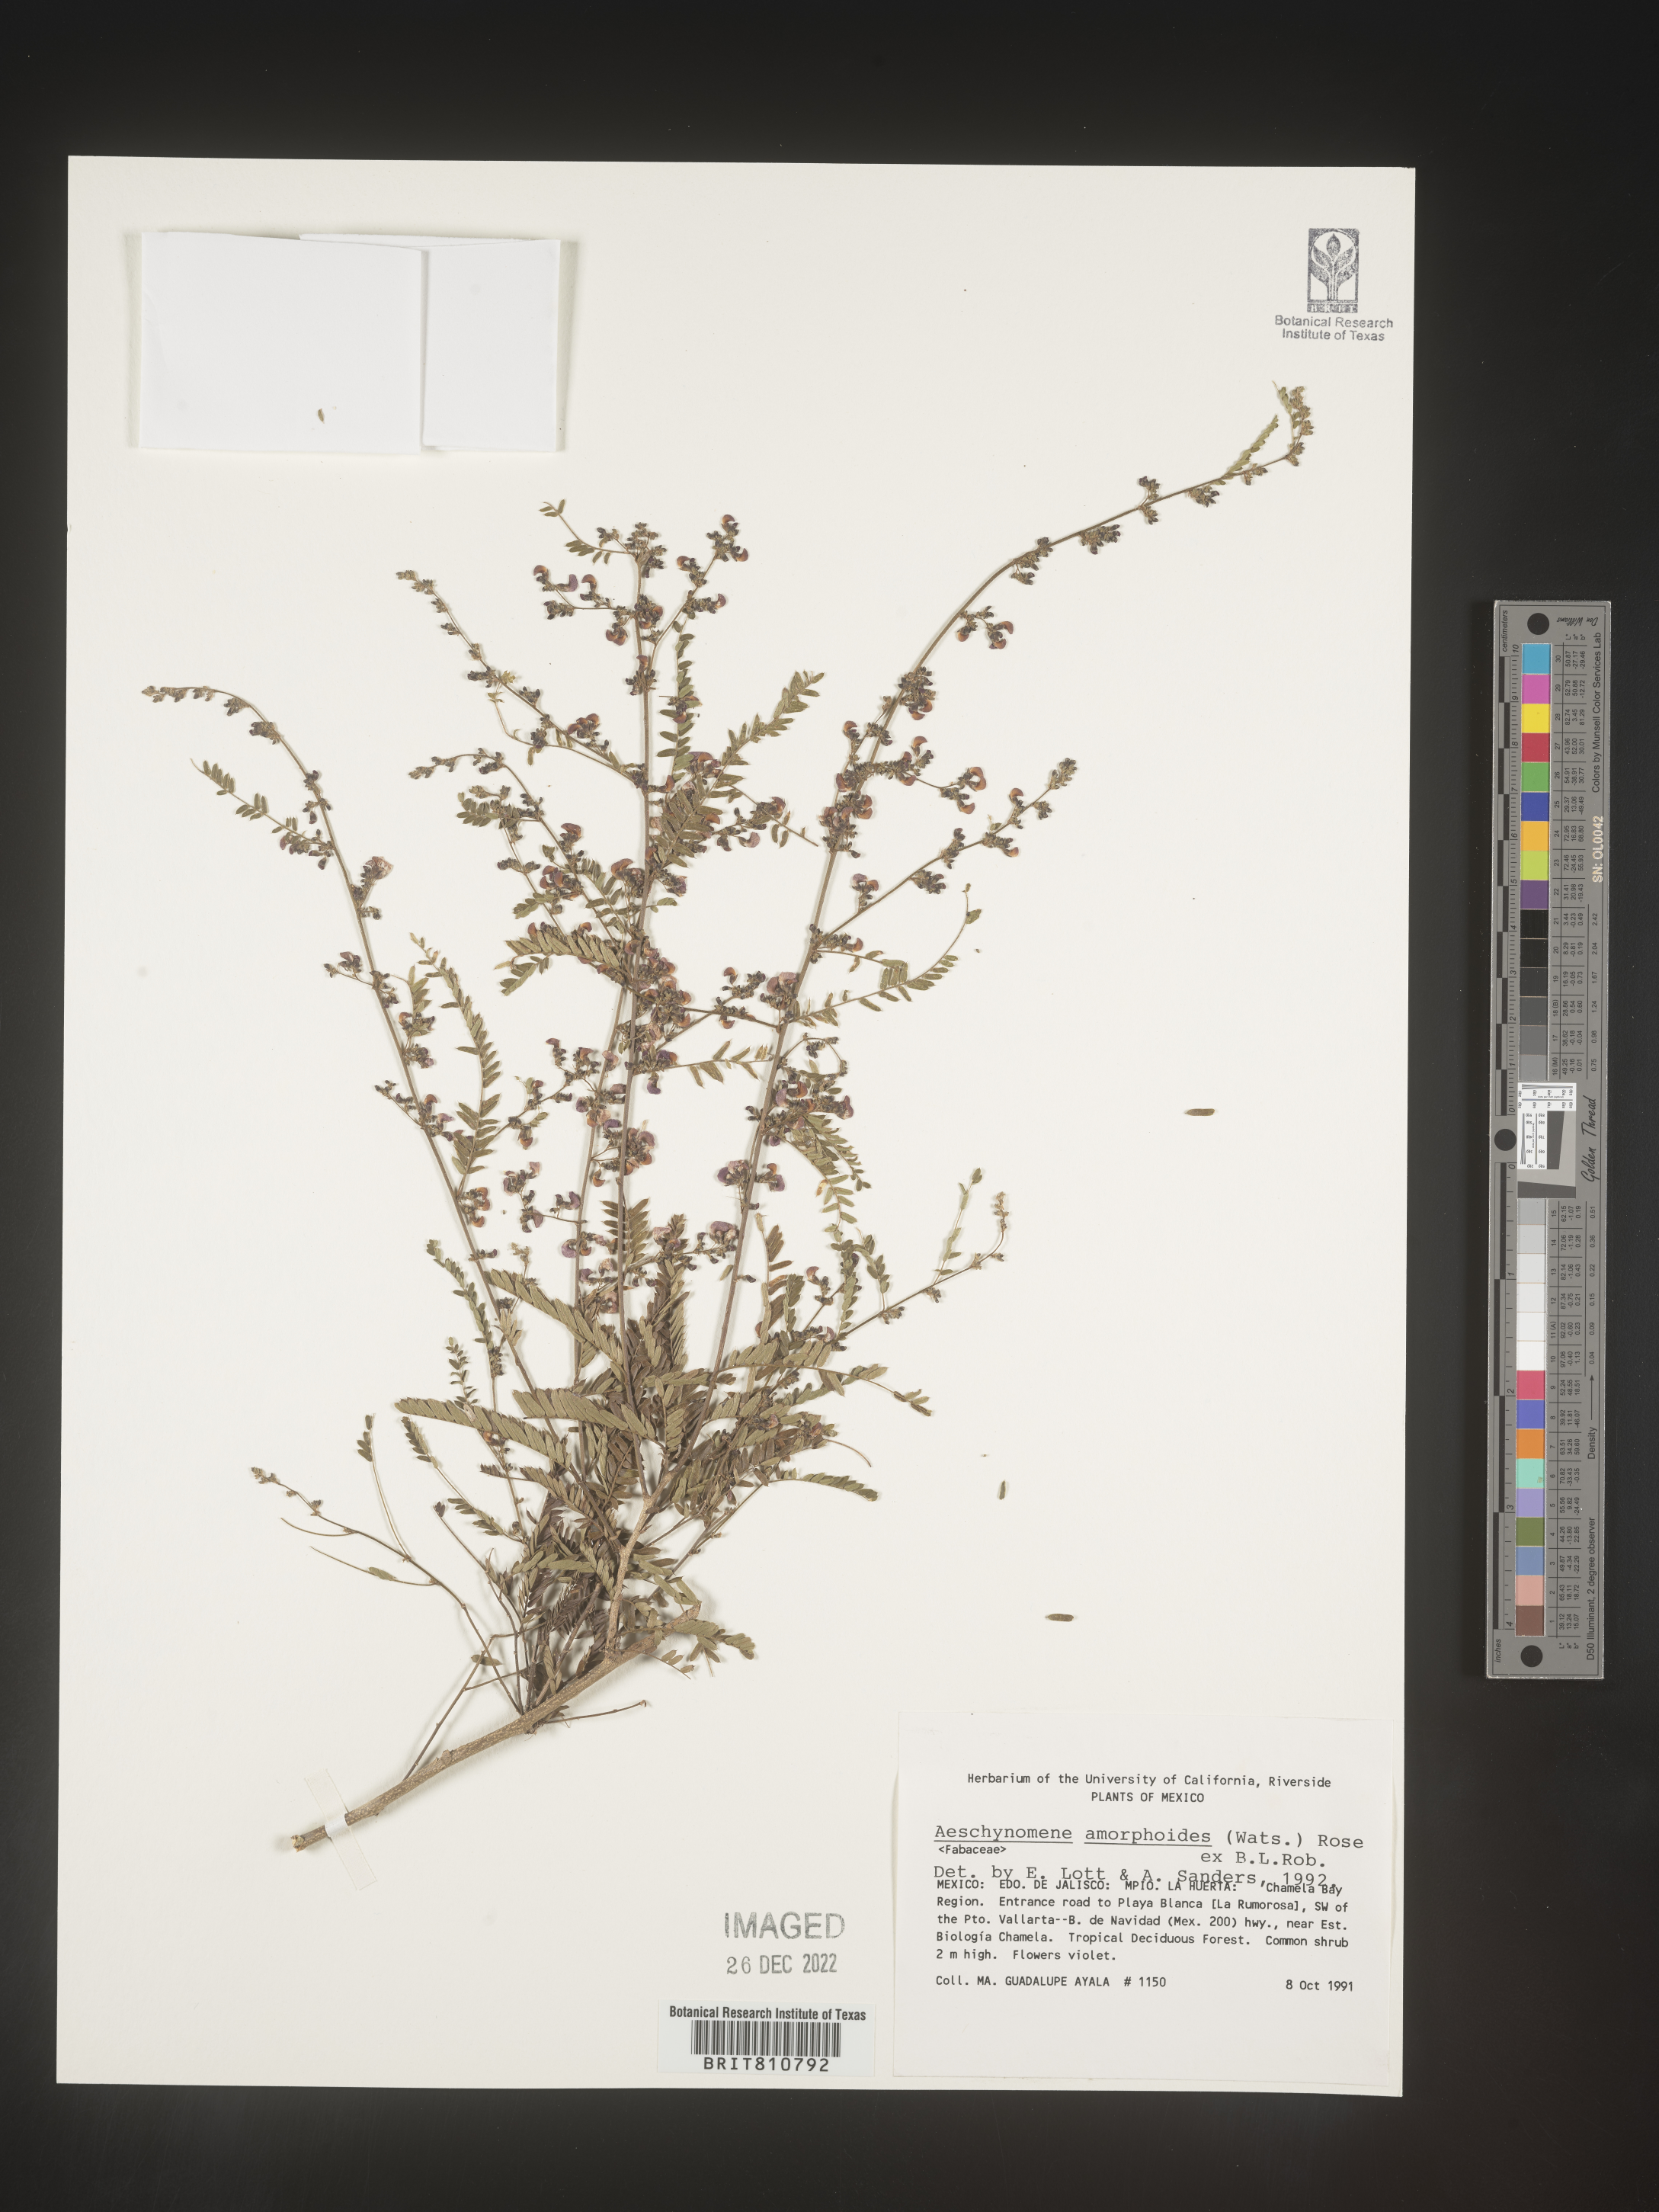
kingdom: Plantae
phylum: Tracheophyta
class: Magnoliopsida
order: Fabales
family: Fabaceae
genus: Aeschynomene
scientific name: Aeschynomene
